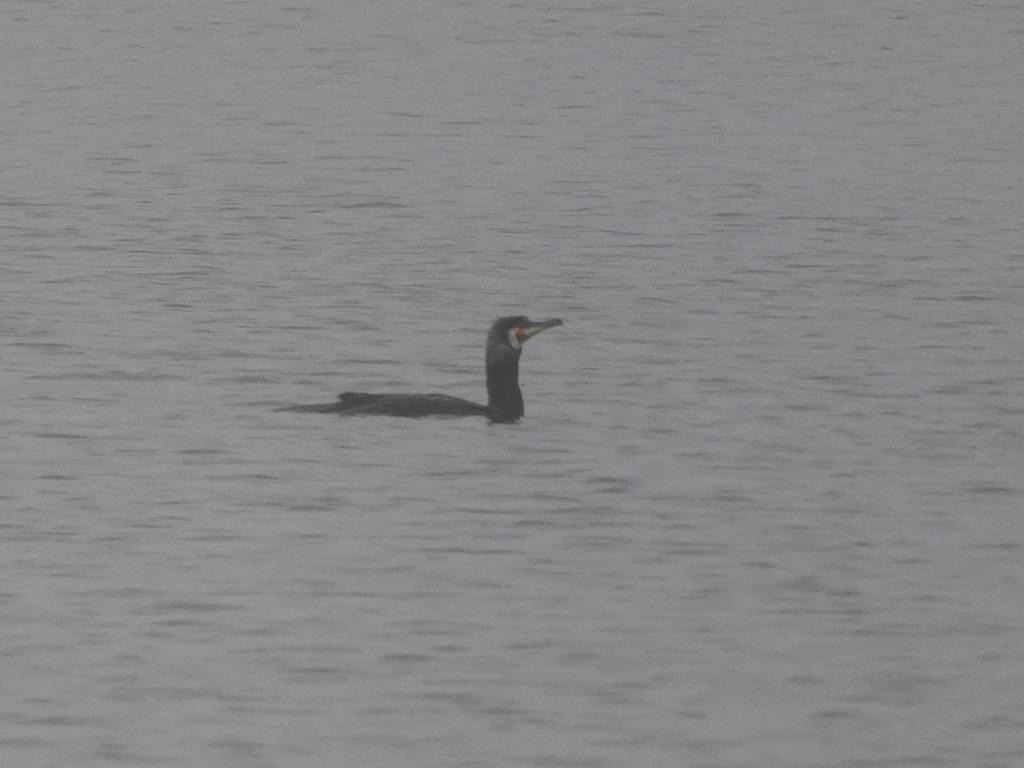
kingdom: Animalia
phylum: Chordata
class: Aves
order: Suliformes
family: Phalacrocoracidae
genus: Phalacrocorax
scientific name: Phalacrocorax carbo
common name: Skarv
